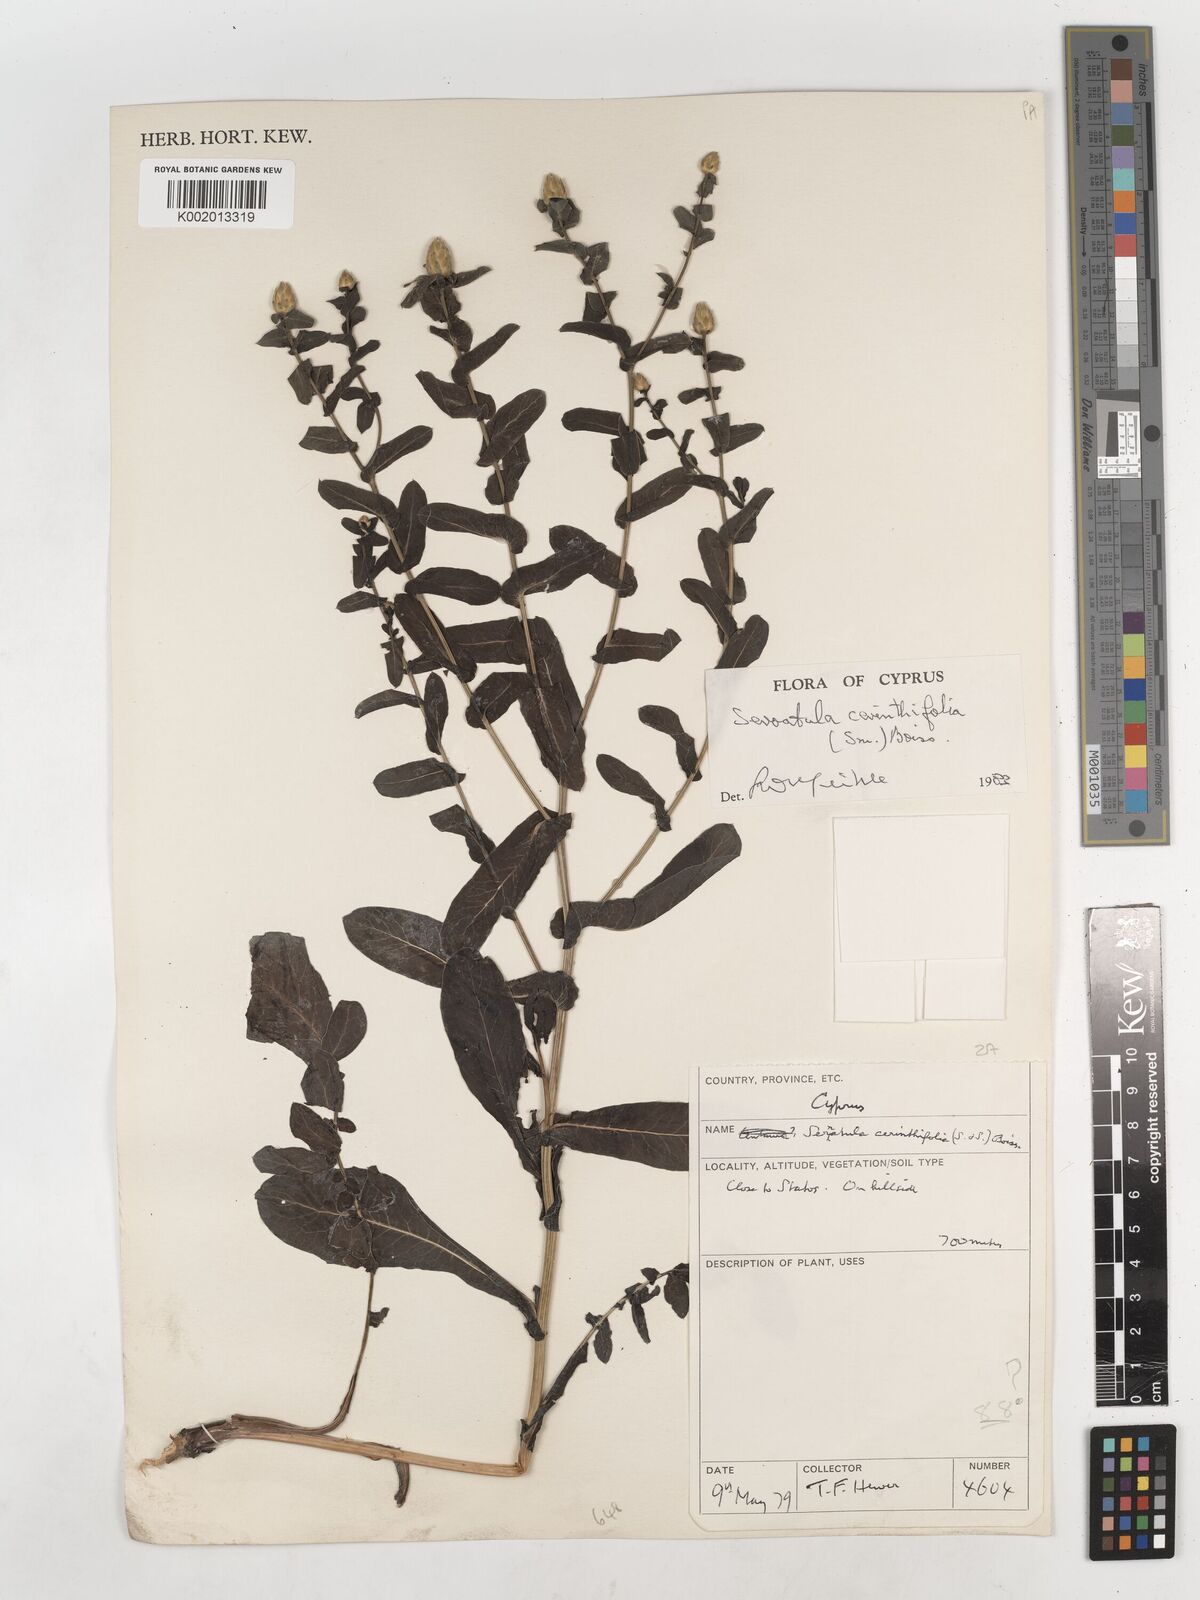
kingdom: Plantae
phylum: Tracheophyta
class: Magnoliopsida
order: Asterales
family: Asteraceae
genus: Klasea
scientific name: Klasea cerinthifolia
